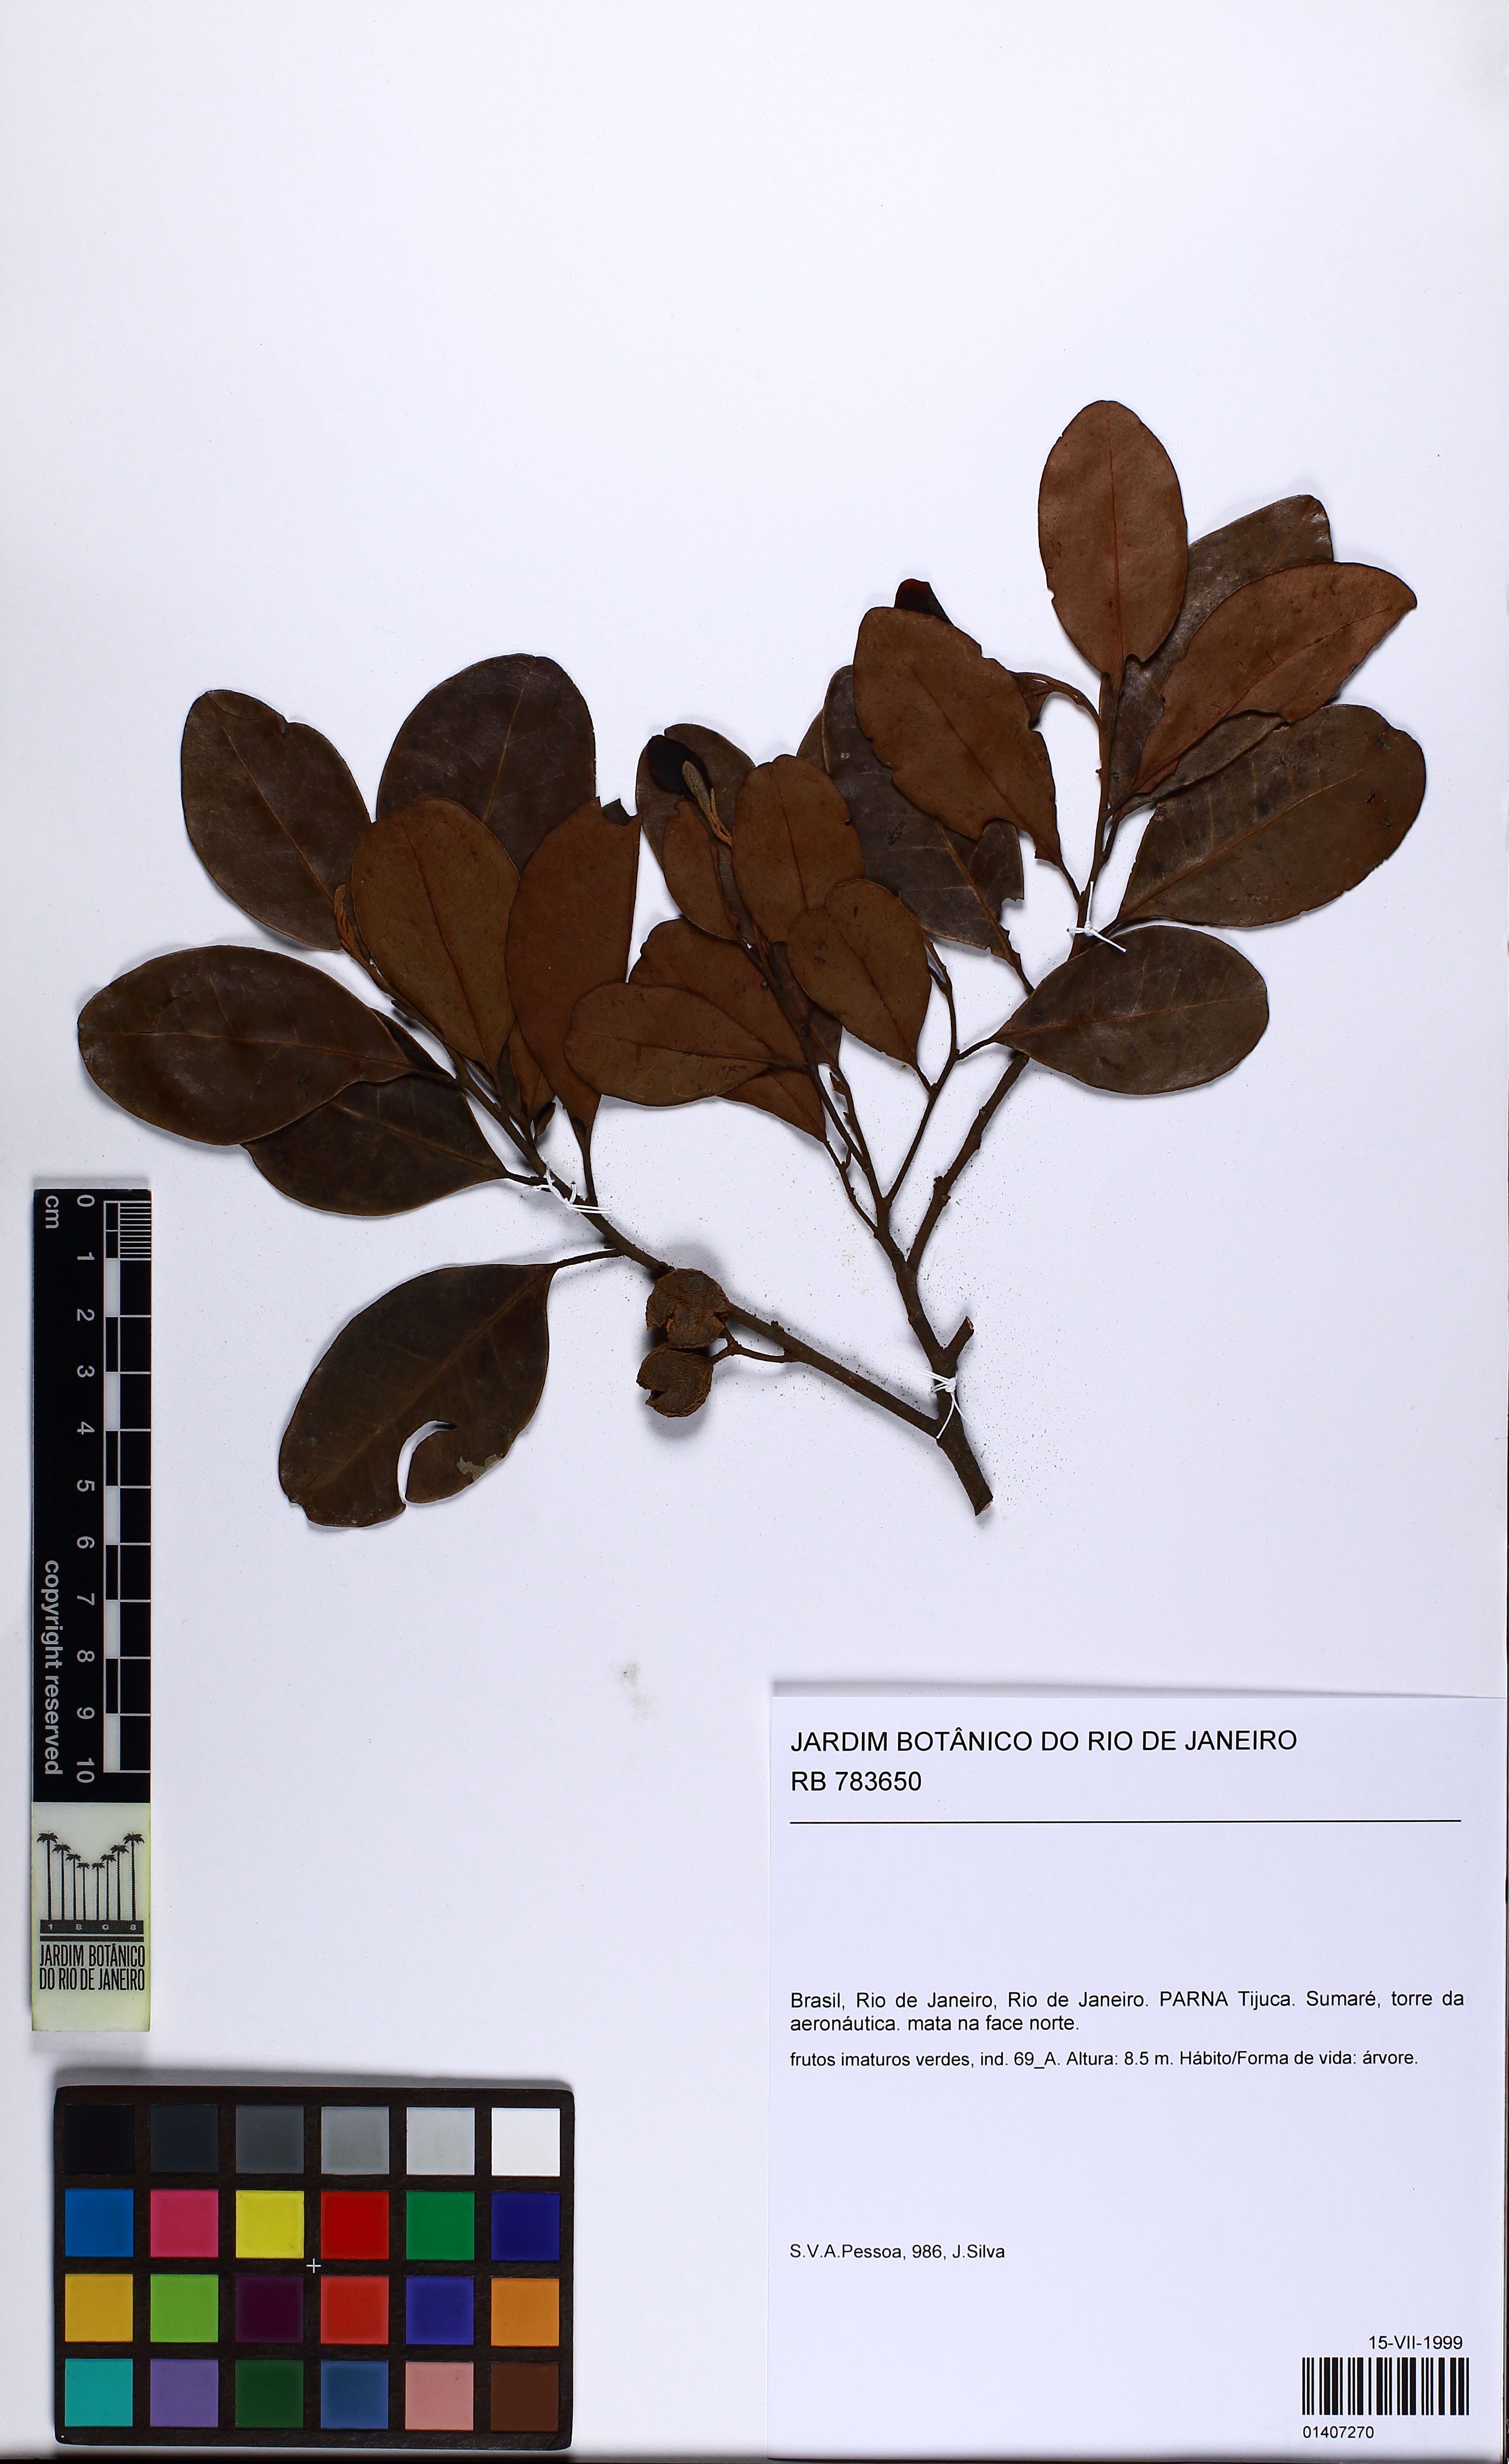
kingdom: Animalia
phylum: Mollusca
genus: Pera
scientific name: Pera
